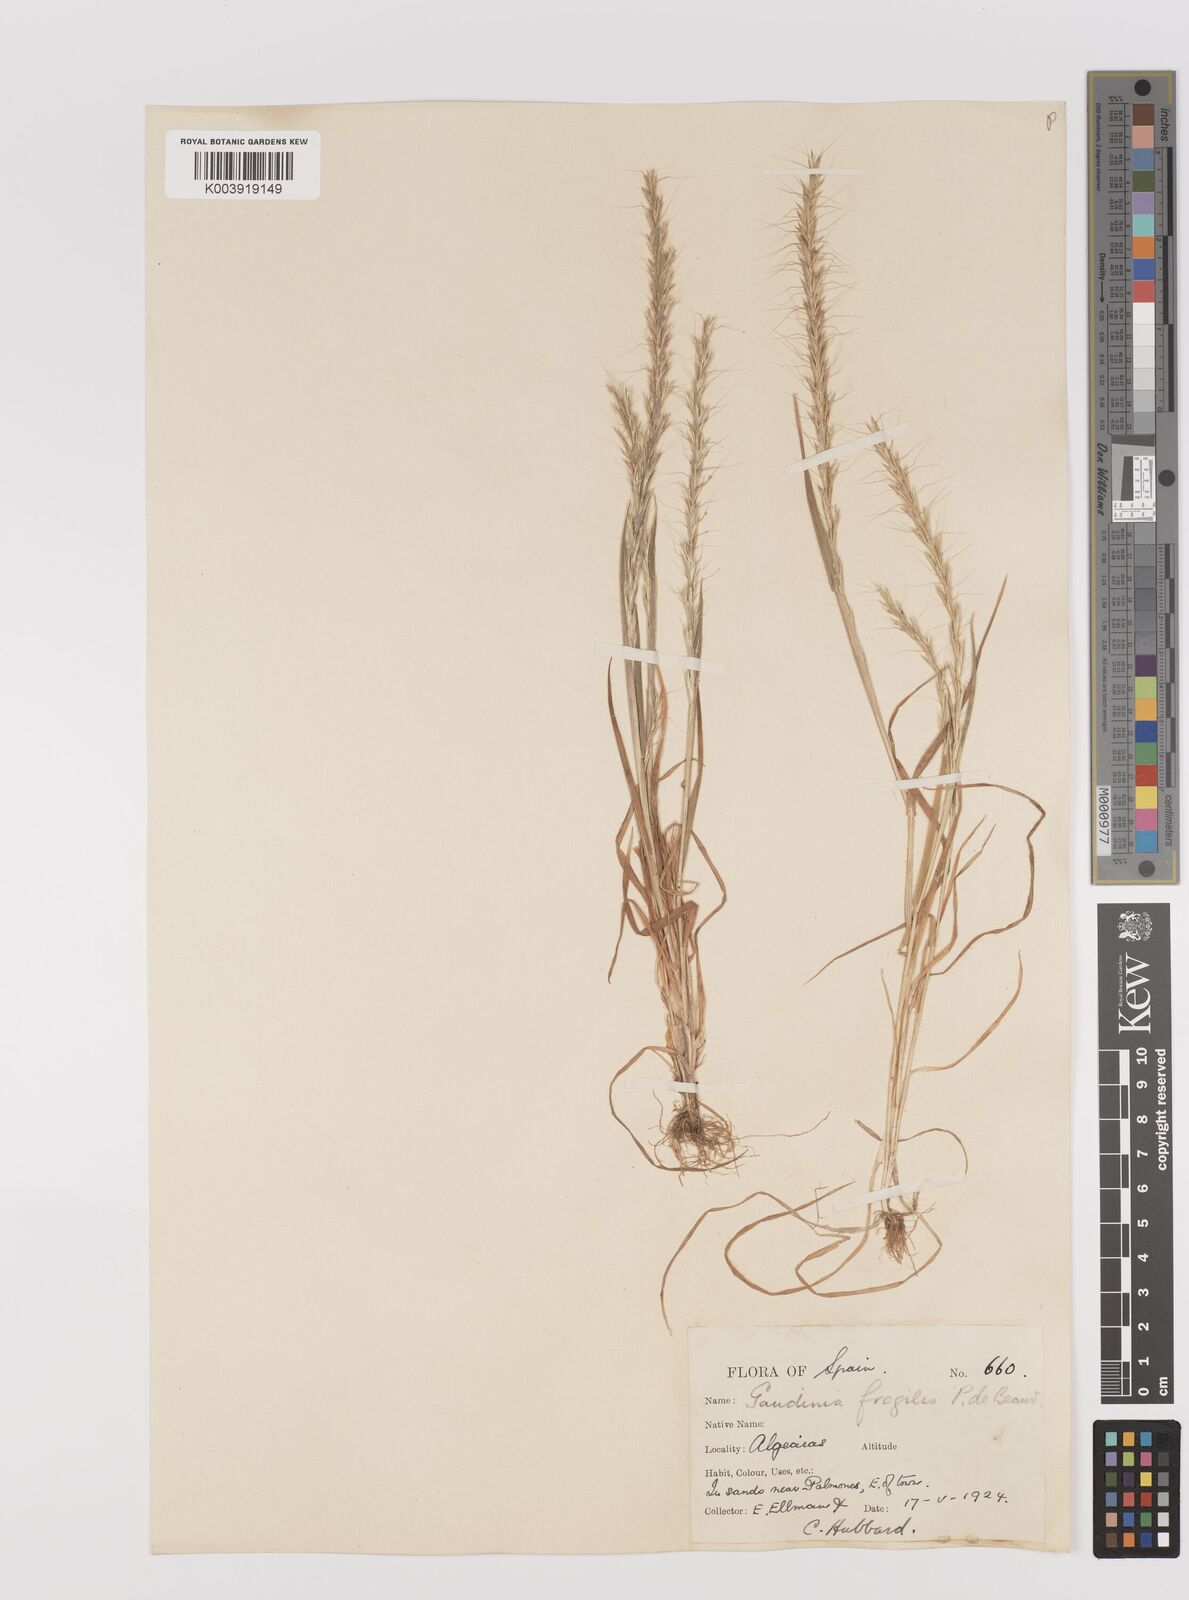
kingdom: Plantae
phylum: Tracheophyta
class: Liliopsida
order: Poales
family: Poaceae
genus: Gaudinia
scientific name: Gaudinia fragilis
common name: French oat-grass
